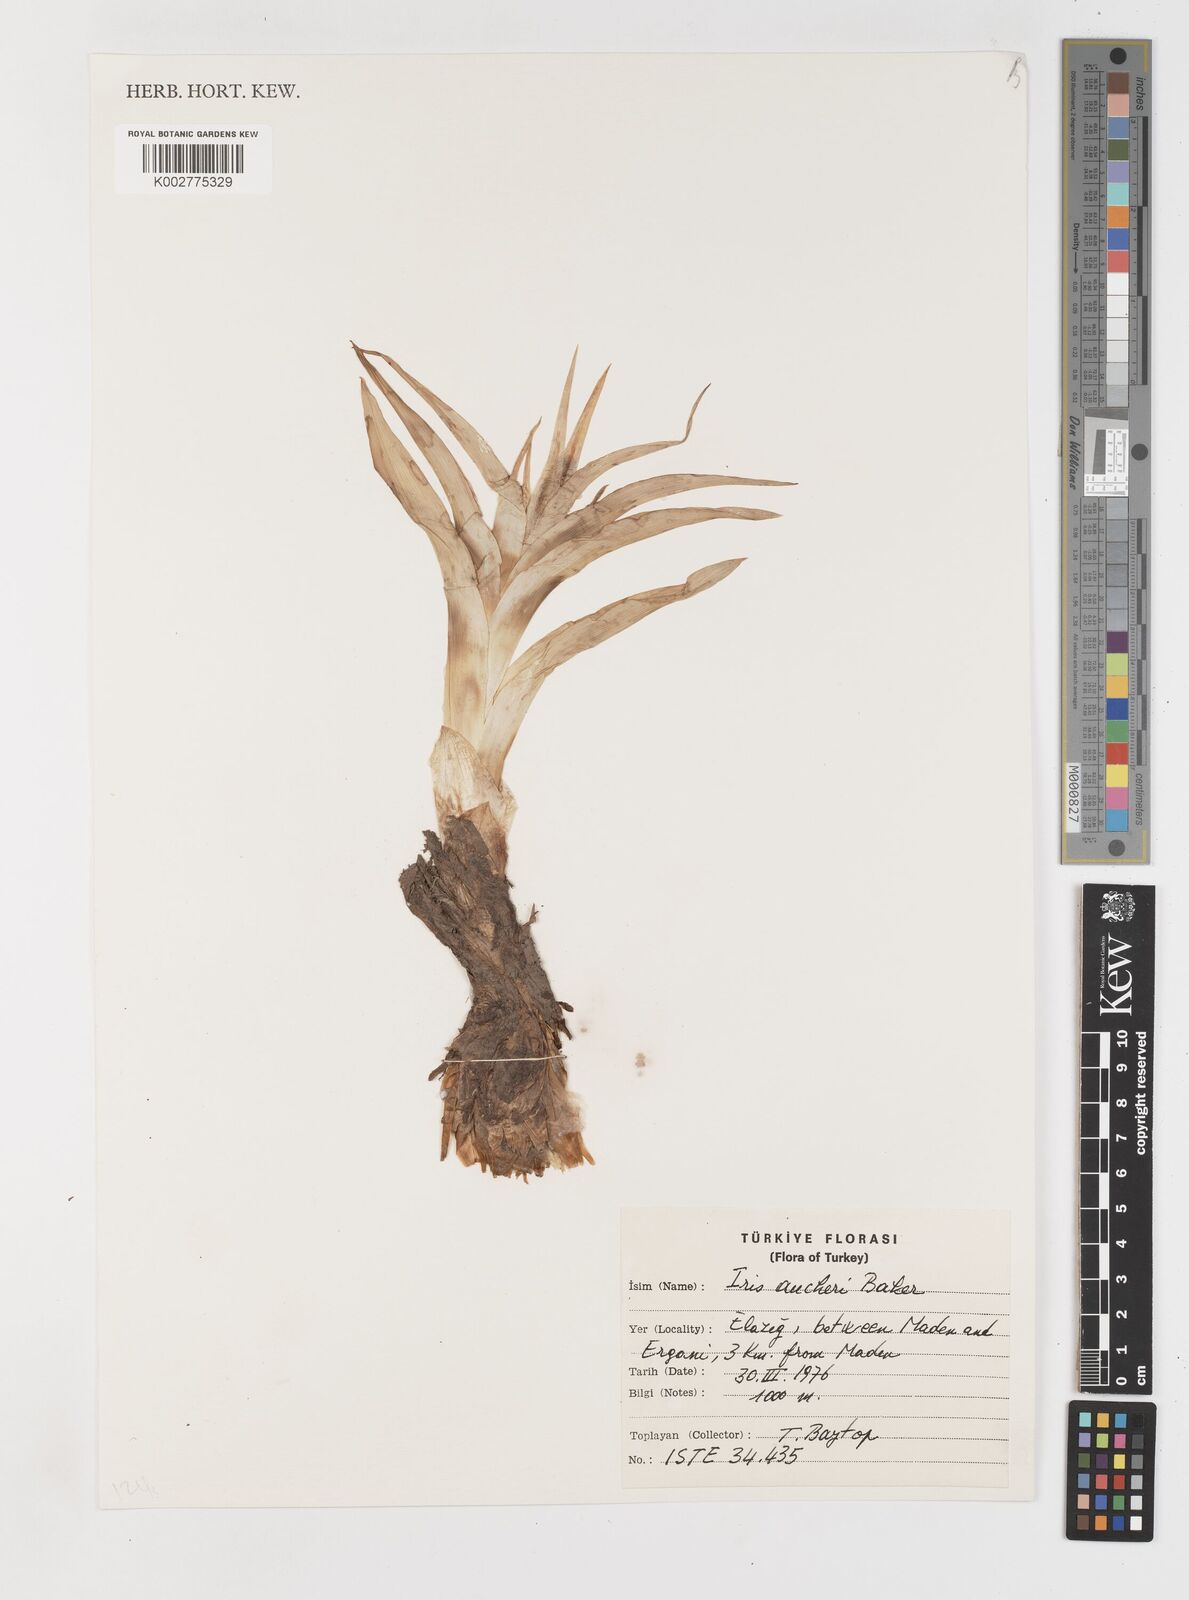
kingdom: Plantae
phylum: Tracheophyta
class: Liliopsida
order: Asparagales
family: Iridaceae
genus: Iris
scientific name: Iris aucheri
